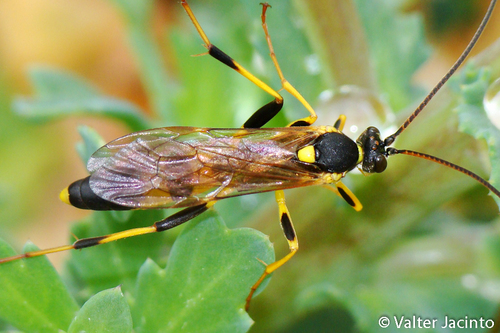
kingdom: Animalia
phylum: Arthropoda
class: Insecta
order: Hymenoptera
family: Ichneumonidae
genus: Amblyteles
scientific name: Amblyteles armatorius
